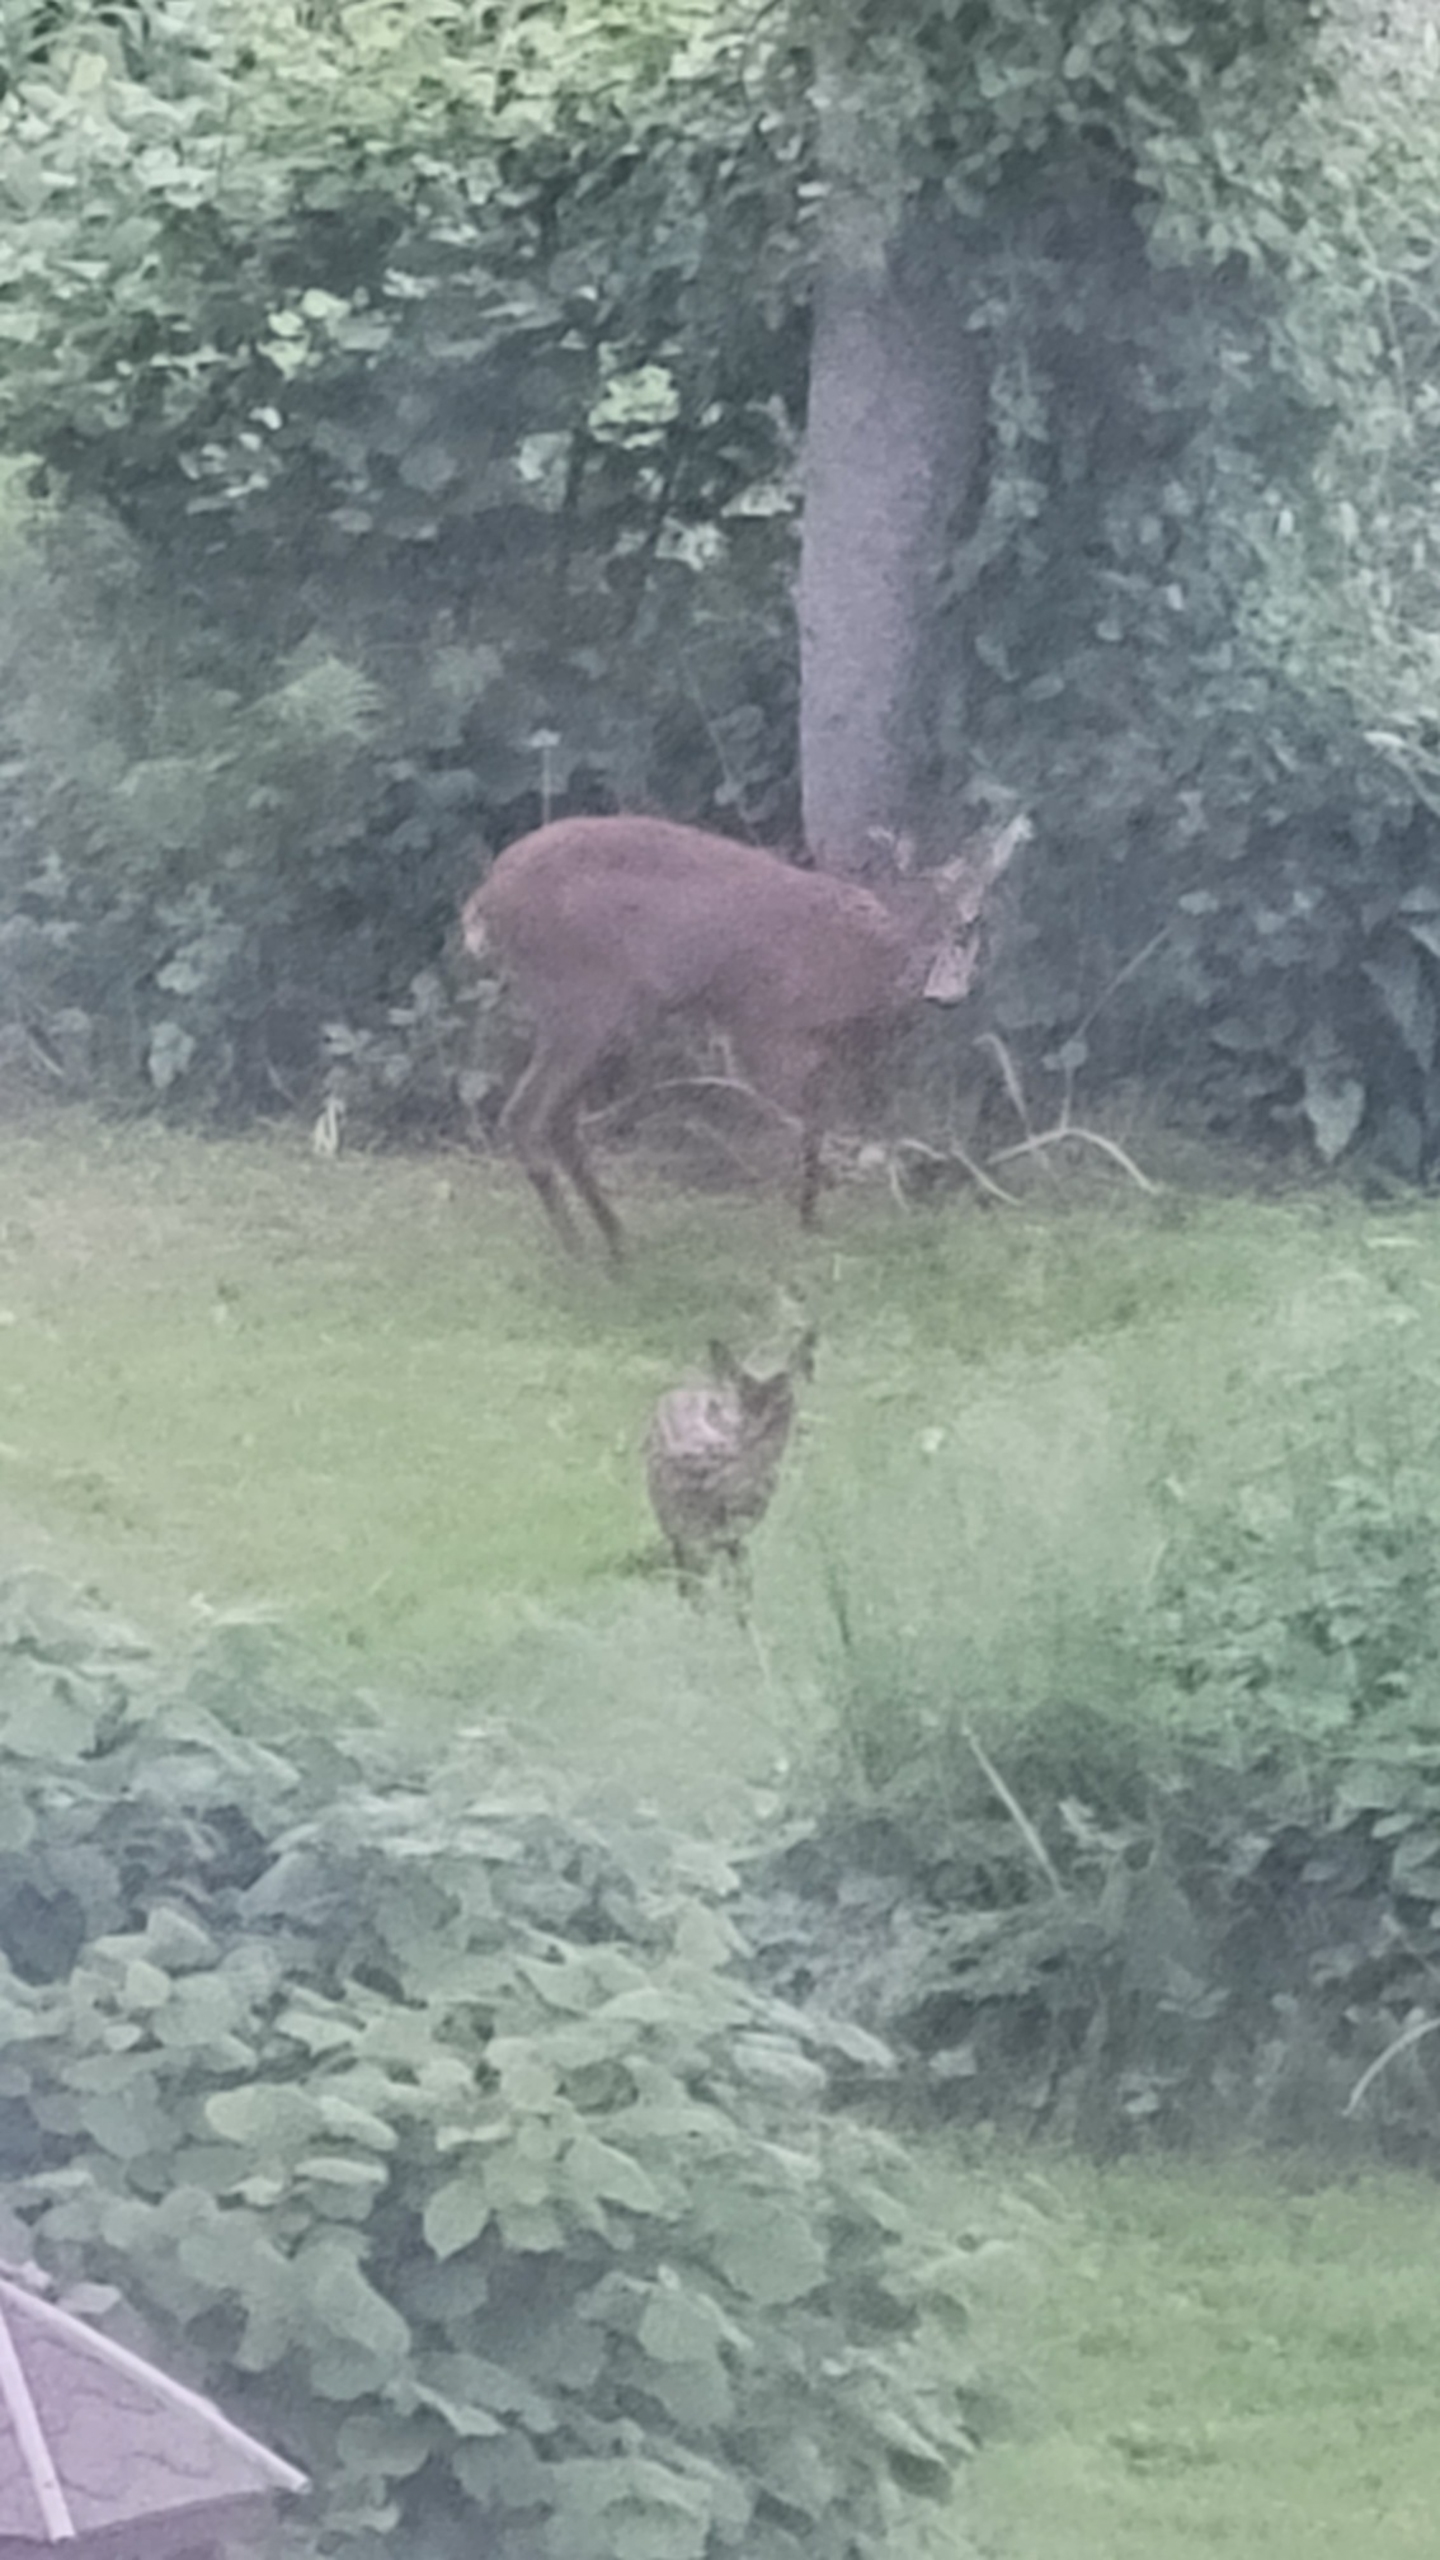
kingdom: Animalia
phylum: Chordata
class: Mammalia
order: Artiodactyla
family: Cervidae
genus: Capreolus
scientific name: Capreolus capreolus
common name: Rådyr
